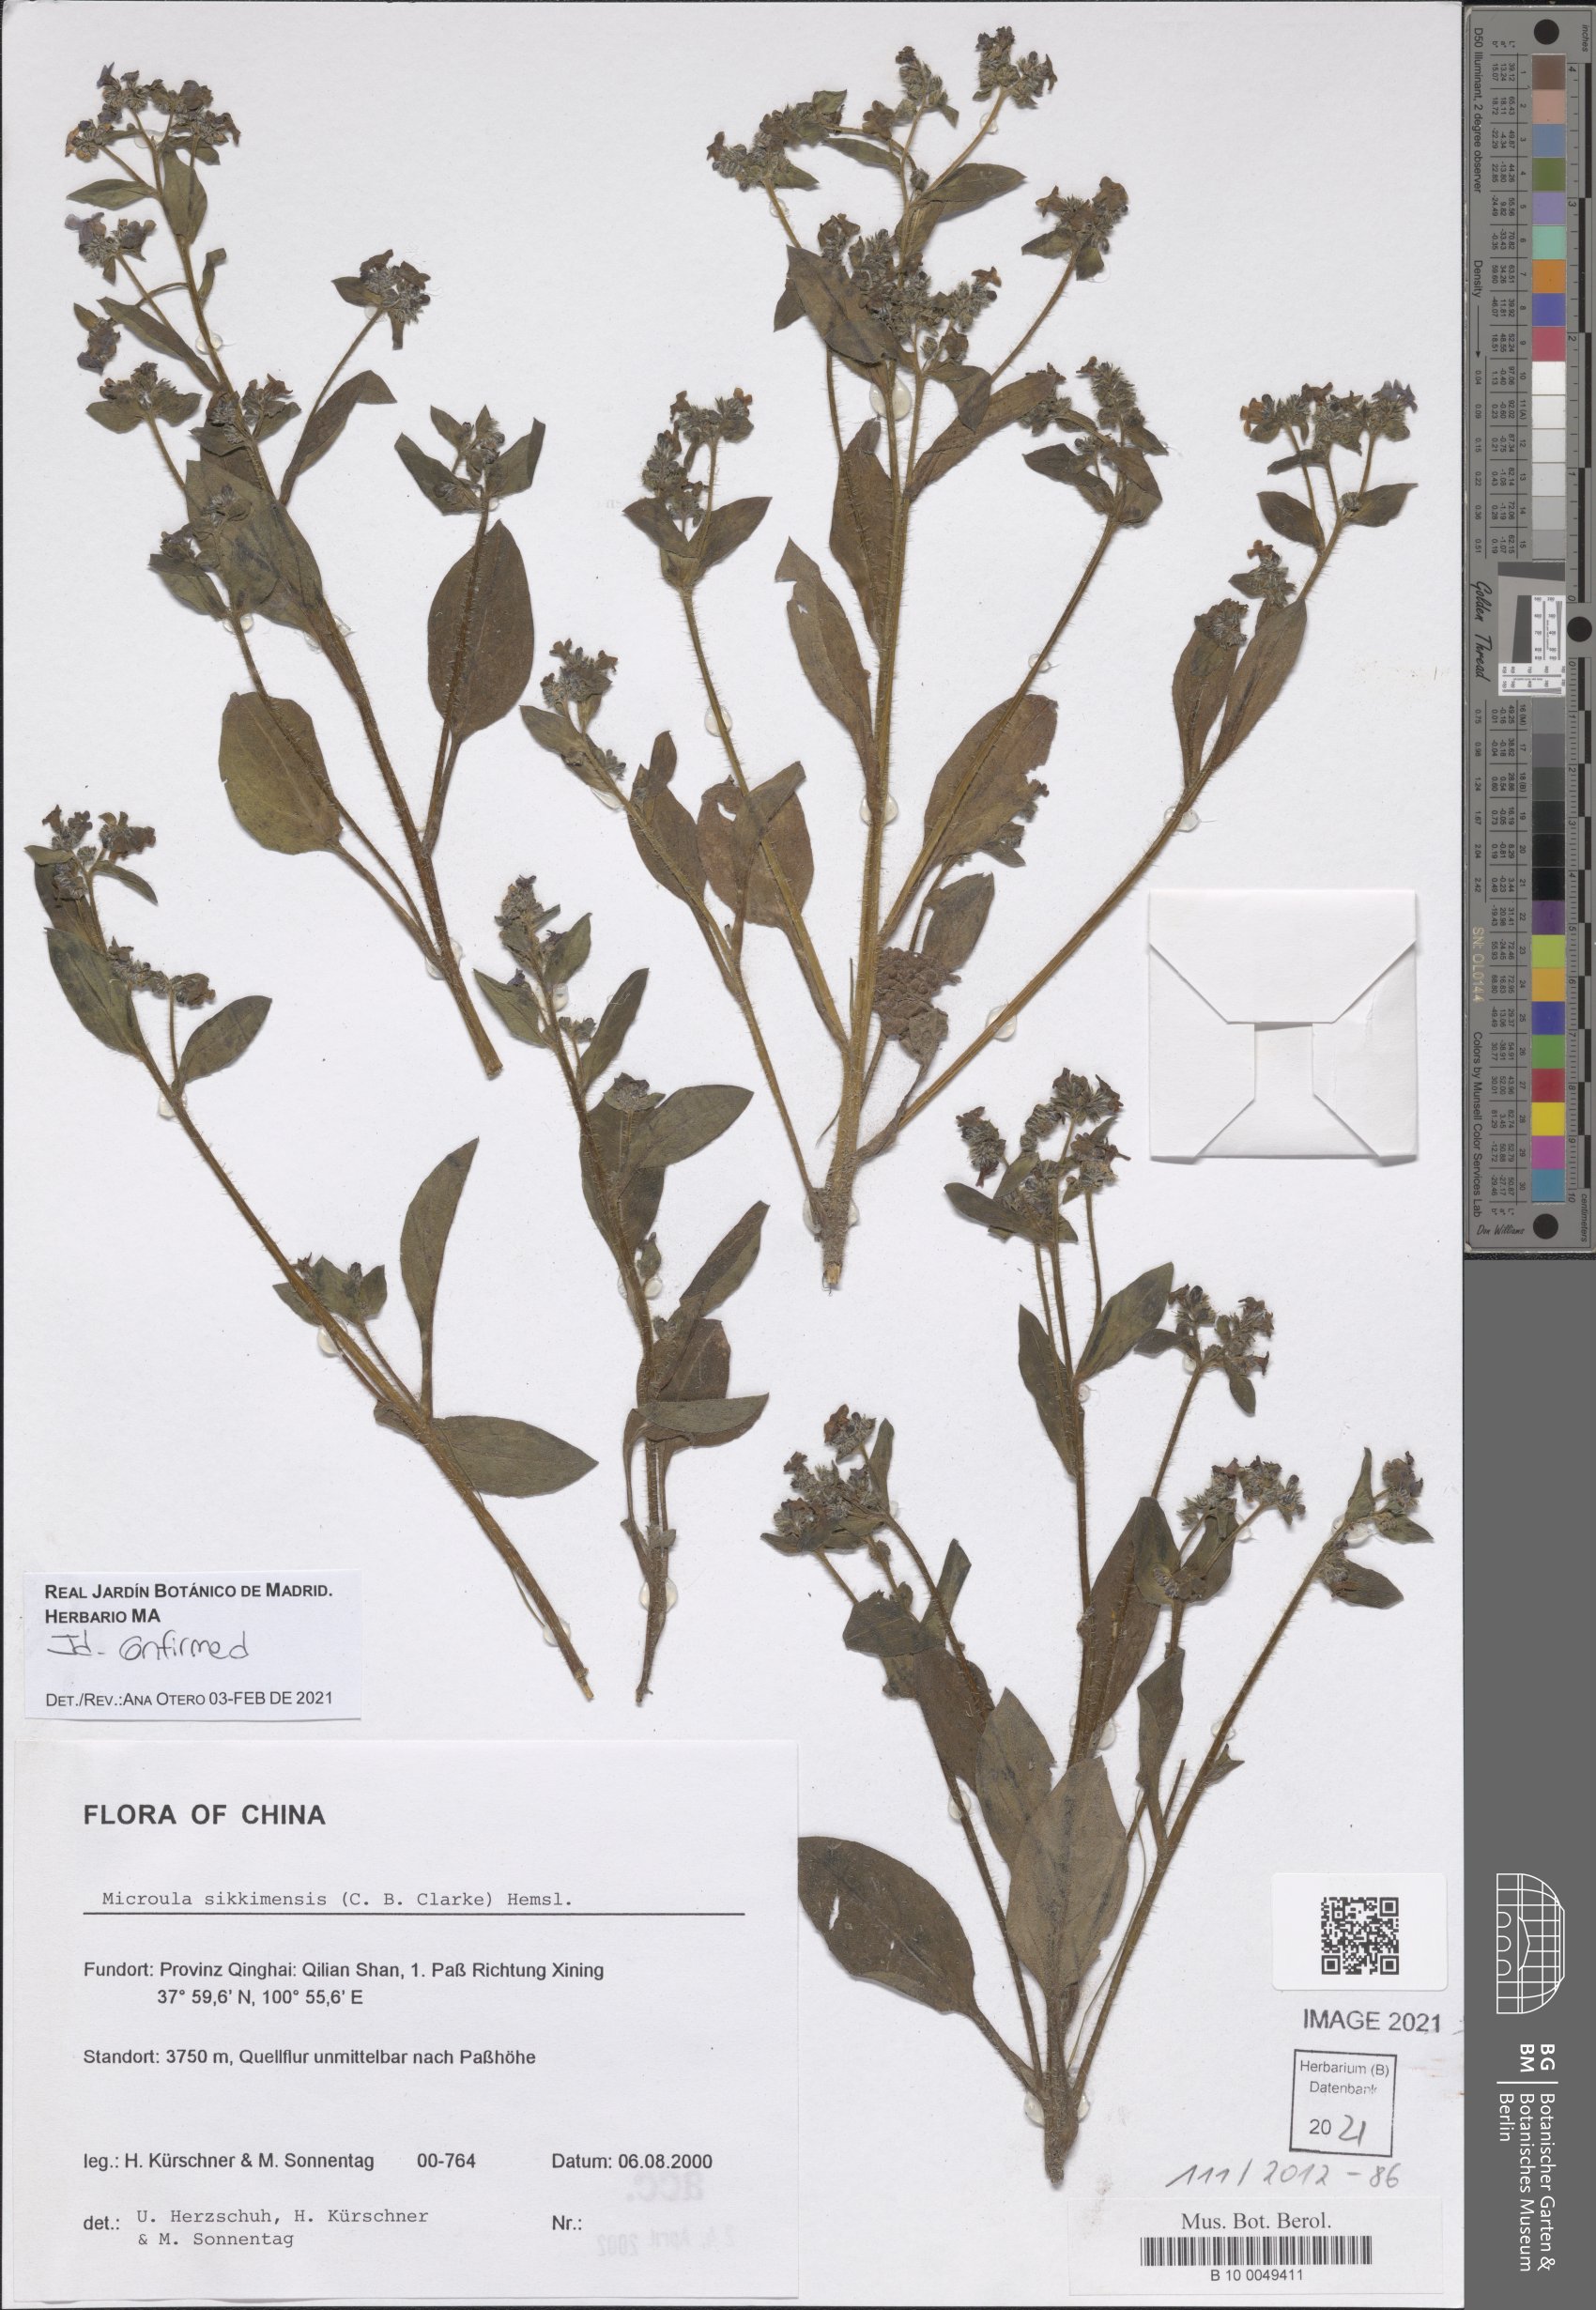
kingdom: Plantae
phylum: Tracheophyta
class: Magnoliopsida
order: Boraginales
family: Boraginaceae
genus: Microula
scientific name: Microula sikkimensis
